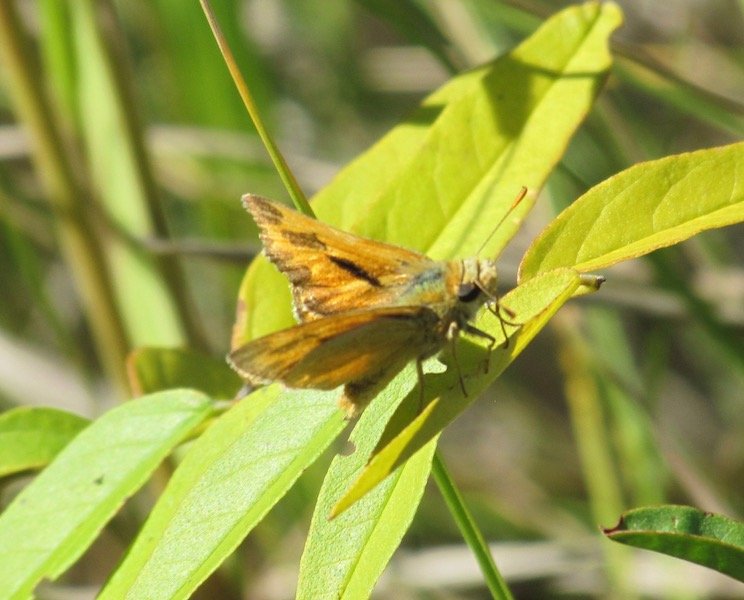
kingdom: Animalia
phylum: Arthropoda
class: Insecta
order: Lepidoptera
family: Hesperiidae
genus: Polites
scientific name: Polites
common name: Long Dash Skipper
